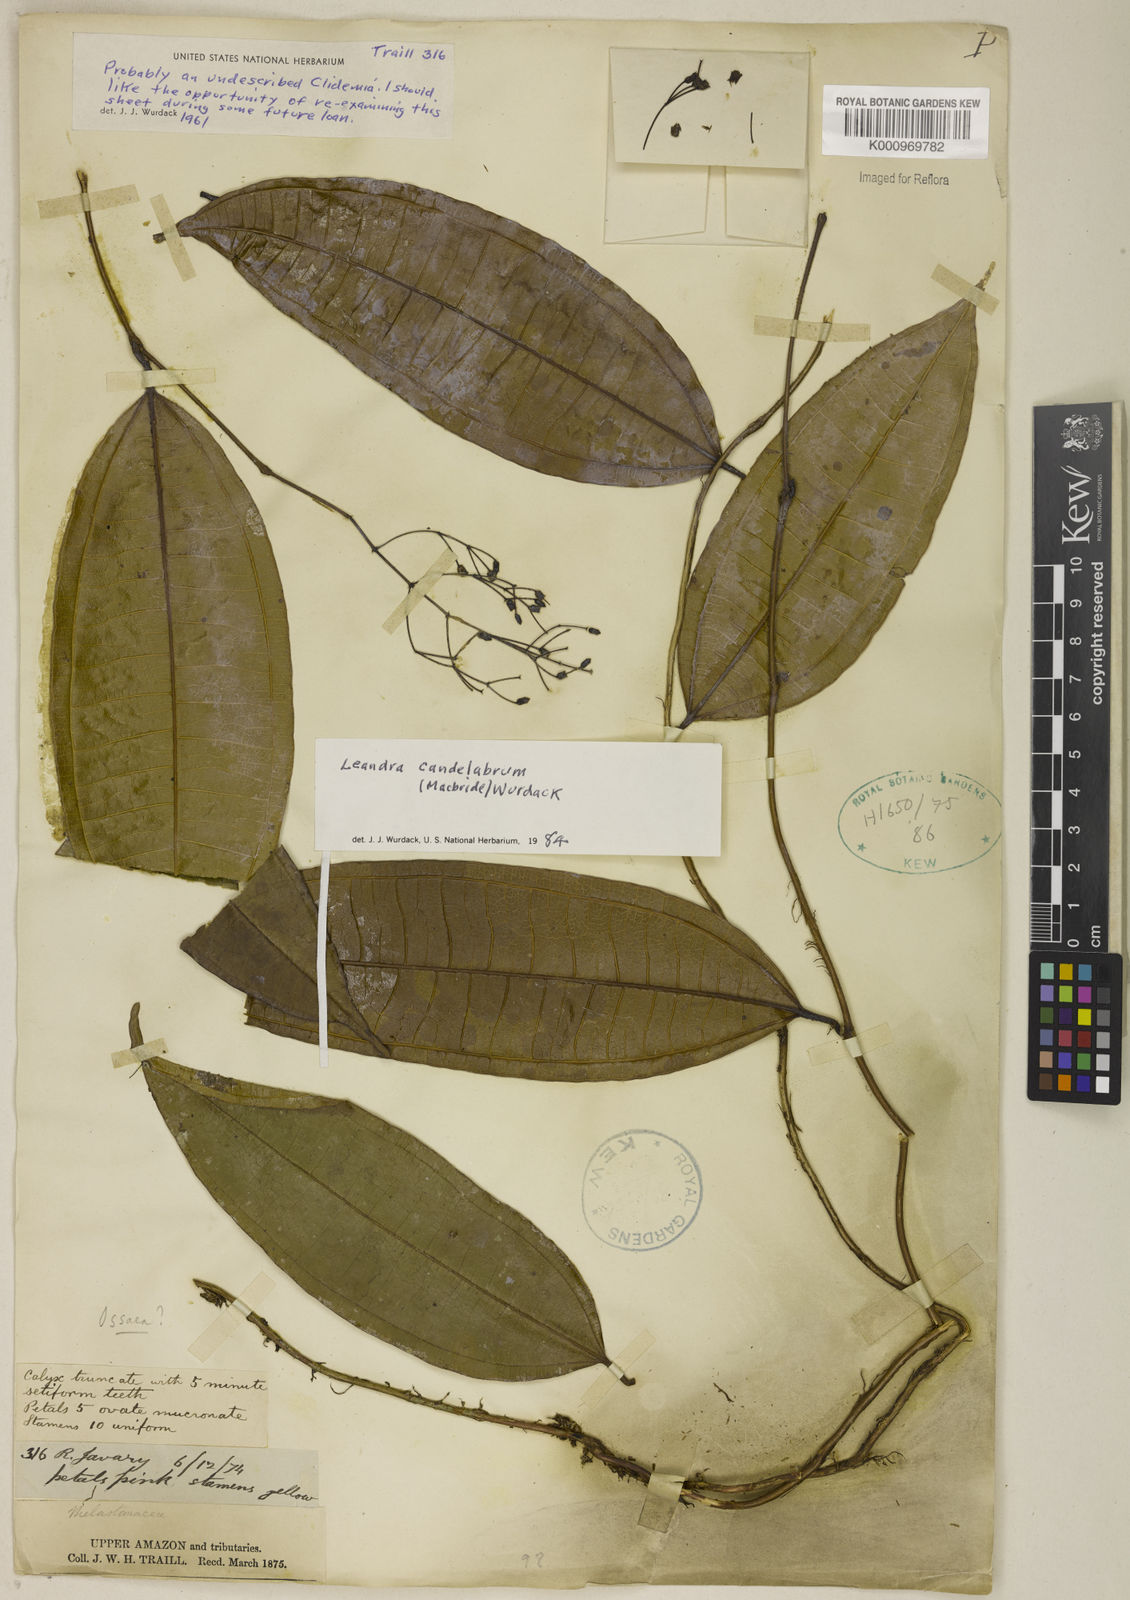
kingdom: Plantae
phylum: Tracheophyta
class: Magnoliopsida
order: Myrtales
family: Melastomataceae
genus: Miconia
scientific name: Miconia candelabrum
